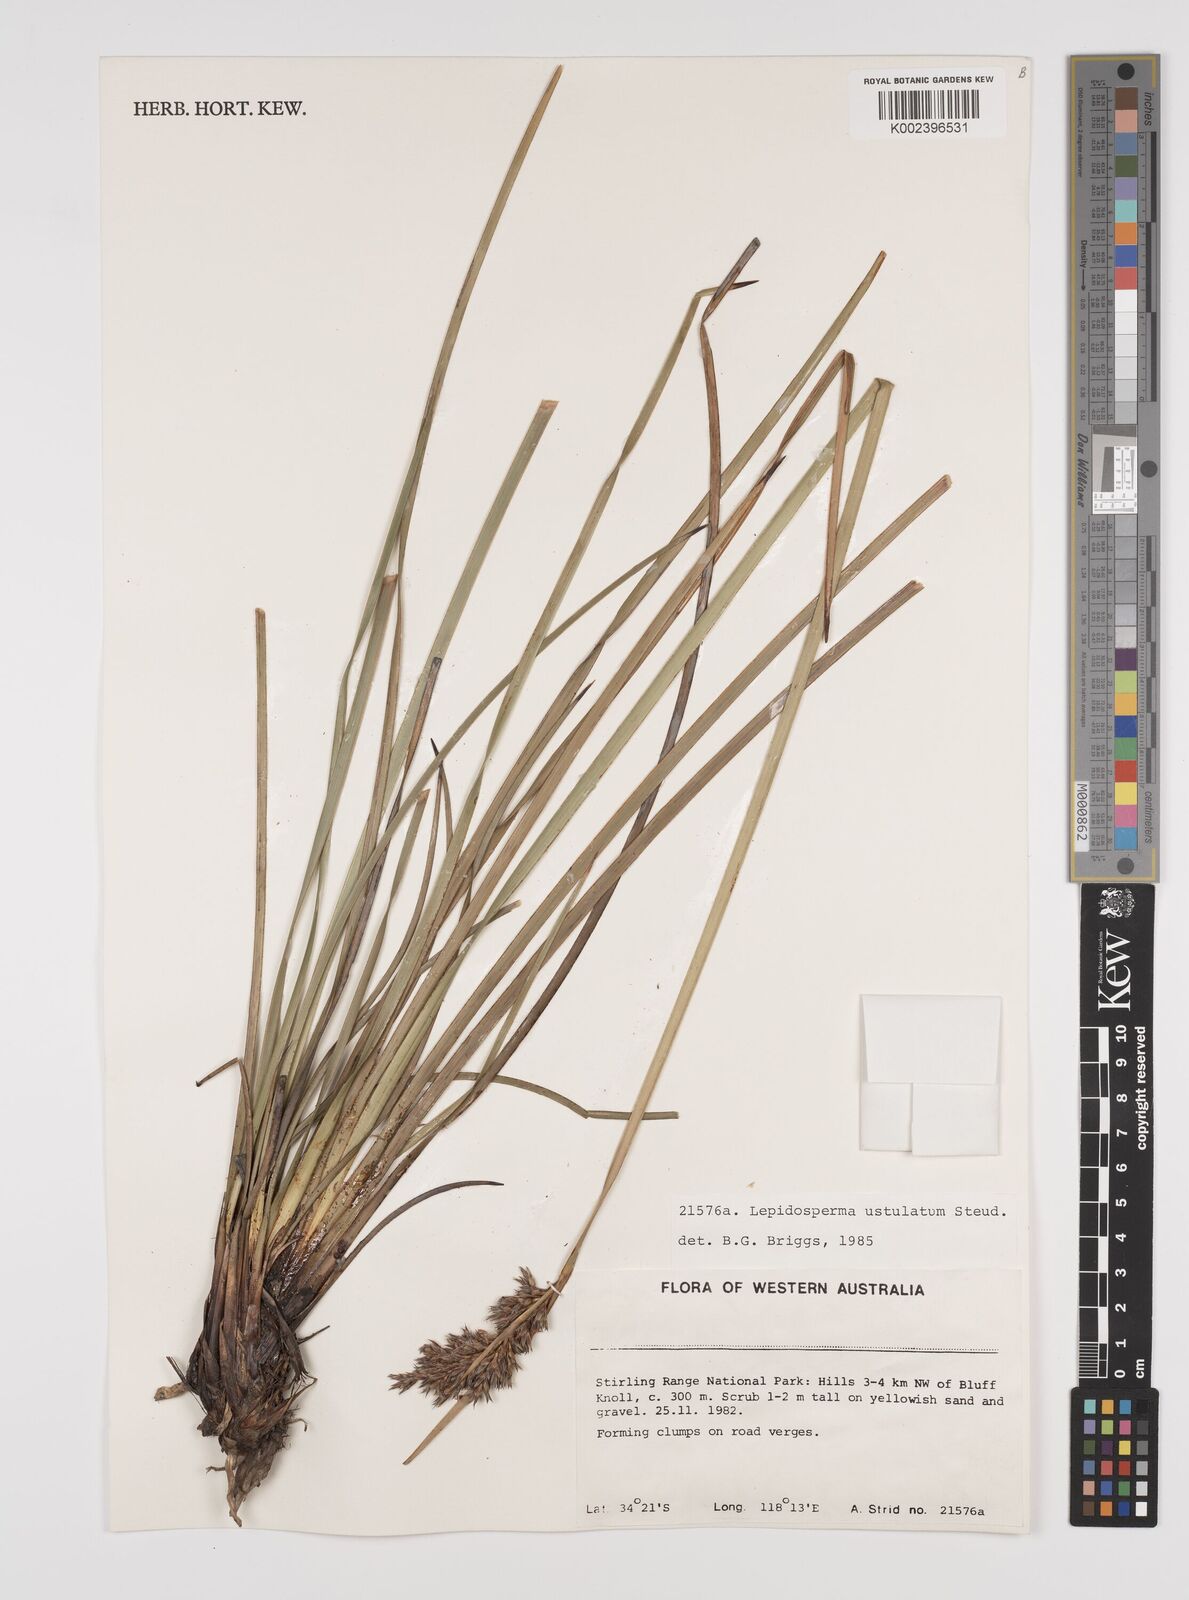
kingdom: Plantae
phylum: Tracheophyta
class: Liliopsida
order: Poales
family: Cyperaceae
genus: Lepidosperma
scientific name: Lepidosperma ustulatum
